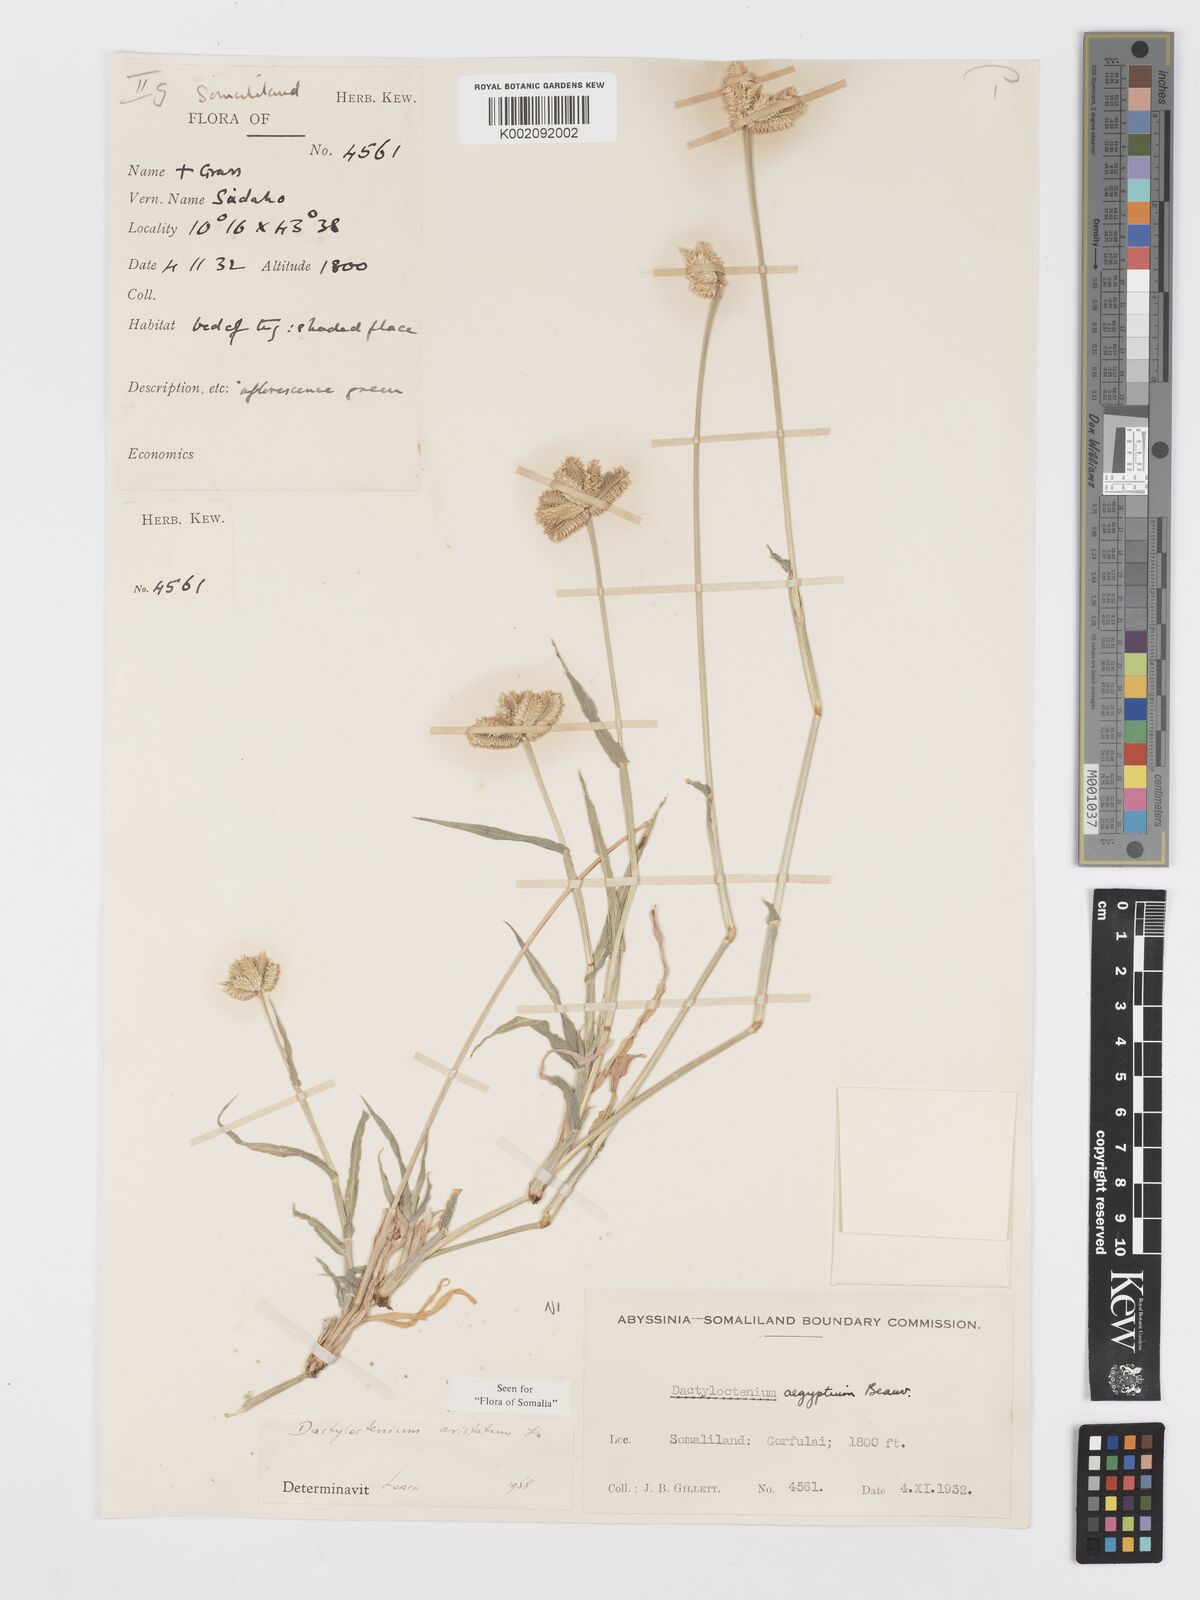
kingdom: Plantae
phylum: Tracheophyta
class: Liliopsida
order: Poales
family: Poaceae
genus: Dactyloctenium
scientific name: Dactyloctenium aristatum
